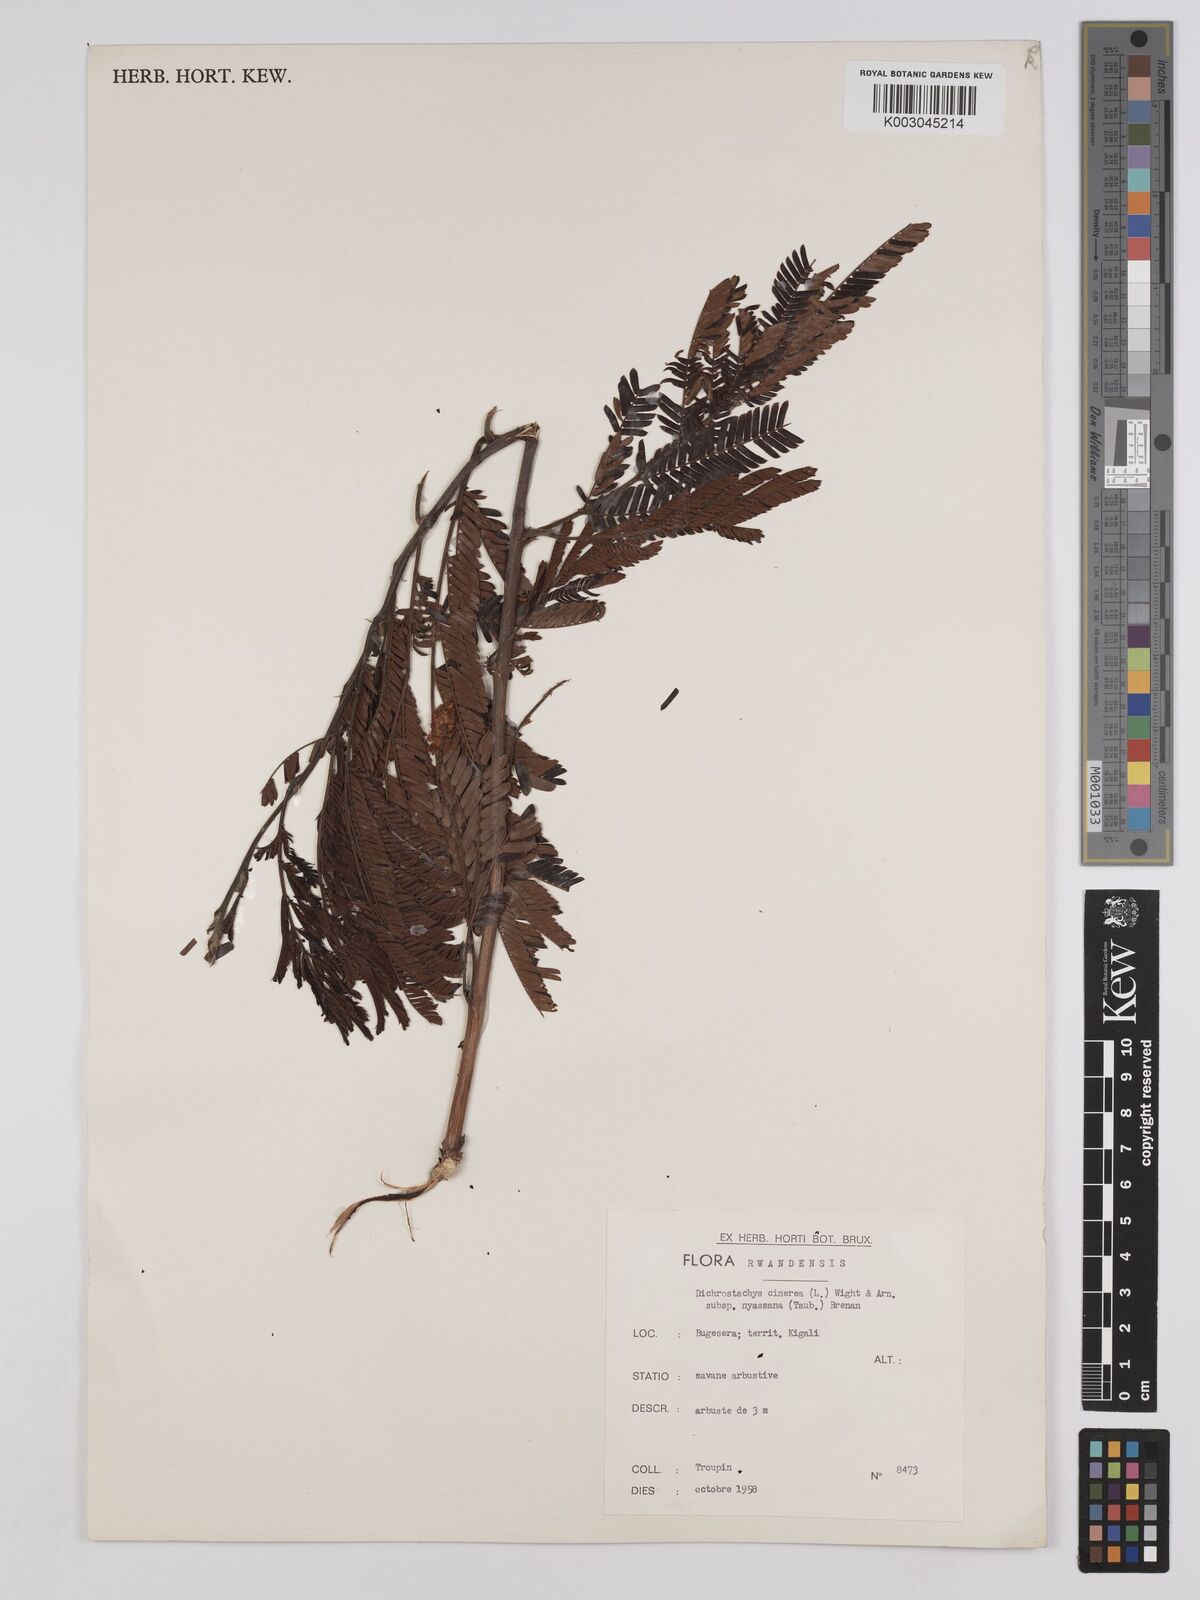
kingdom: Plantae
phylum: Tracheophyta
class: Magnoliopsida
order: Fabales
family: Fabaceae
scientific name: Fabaceae
